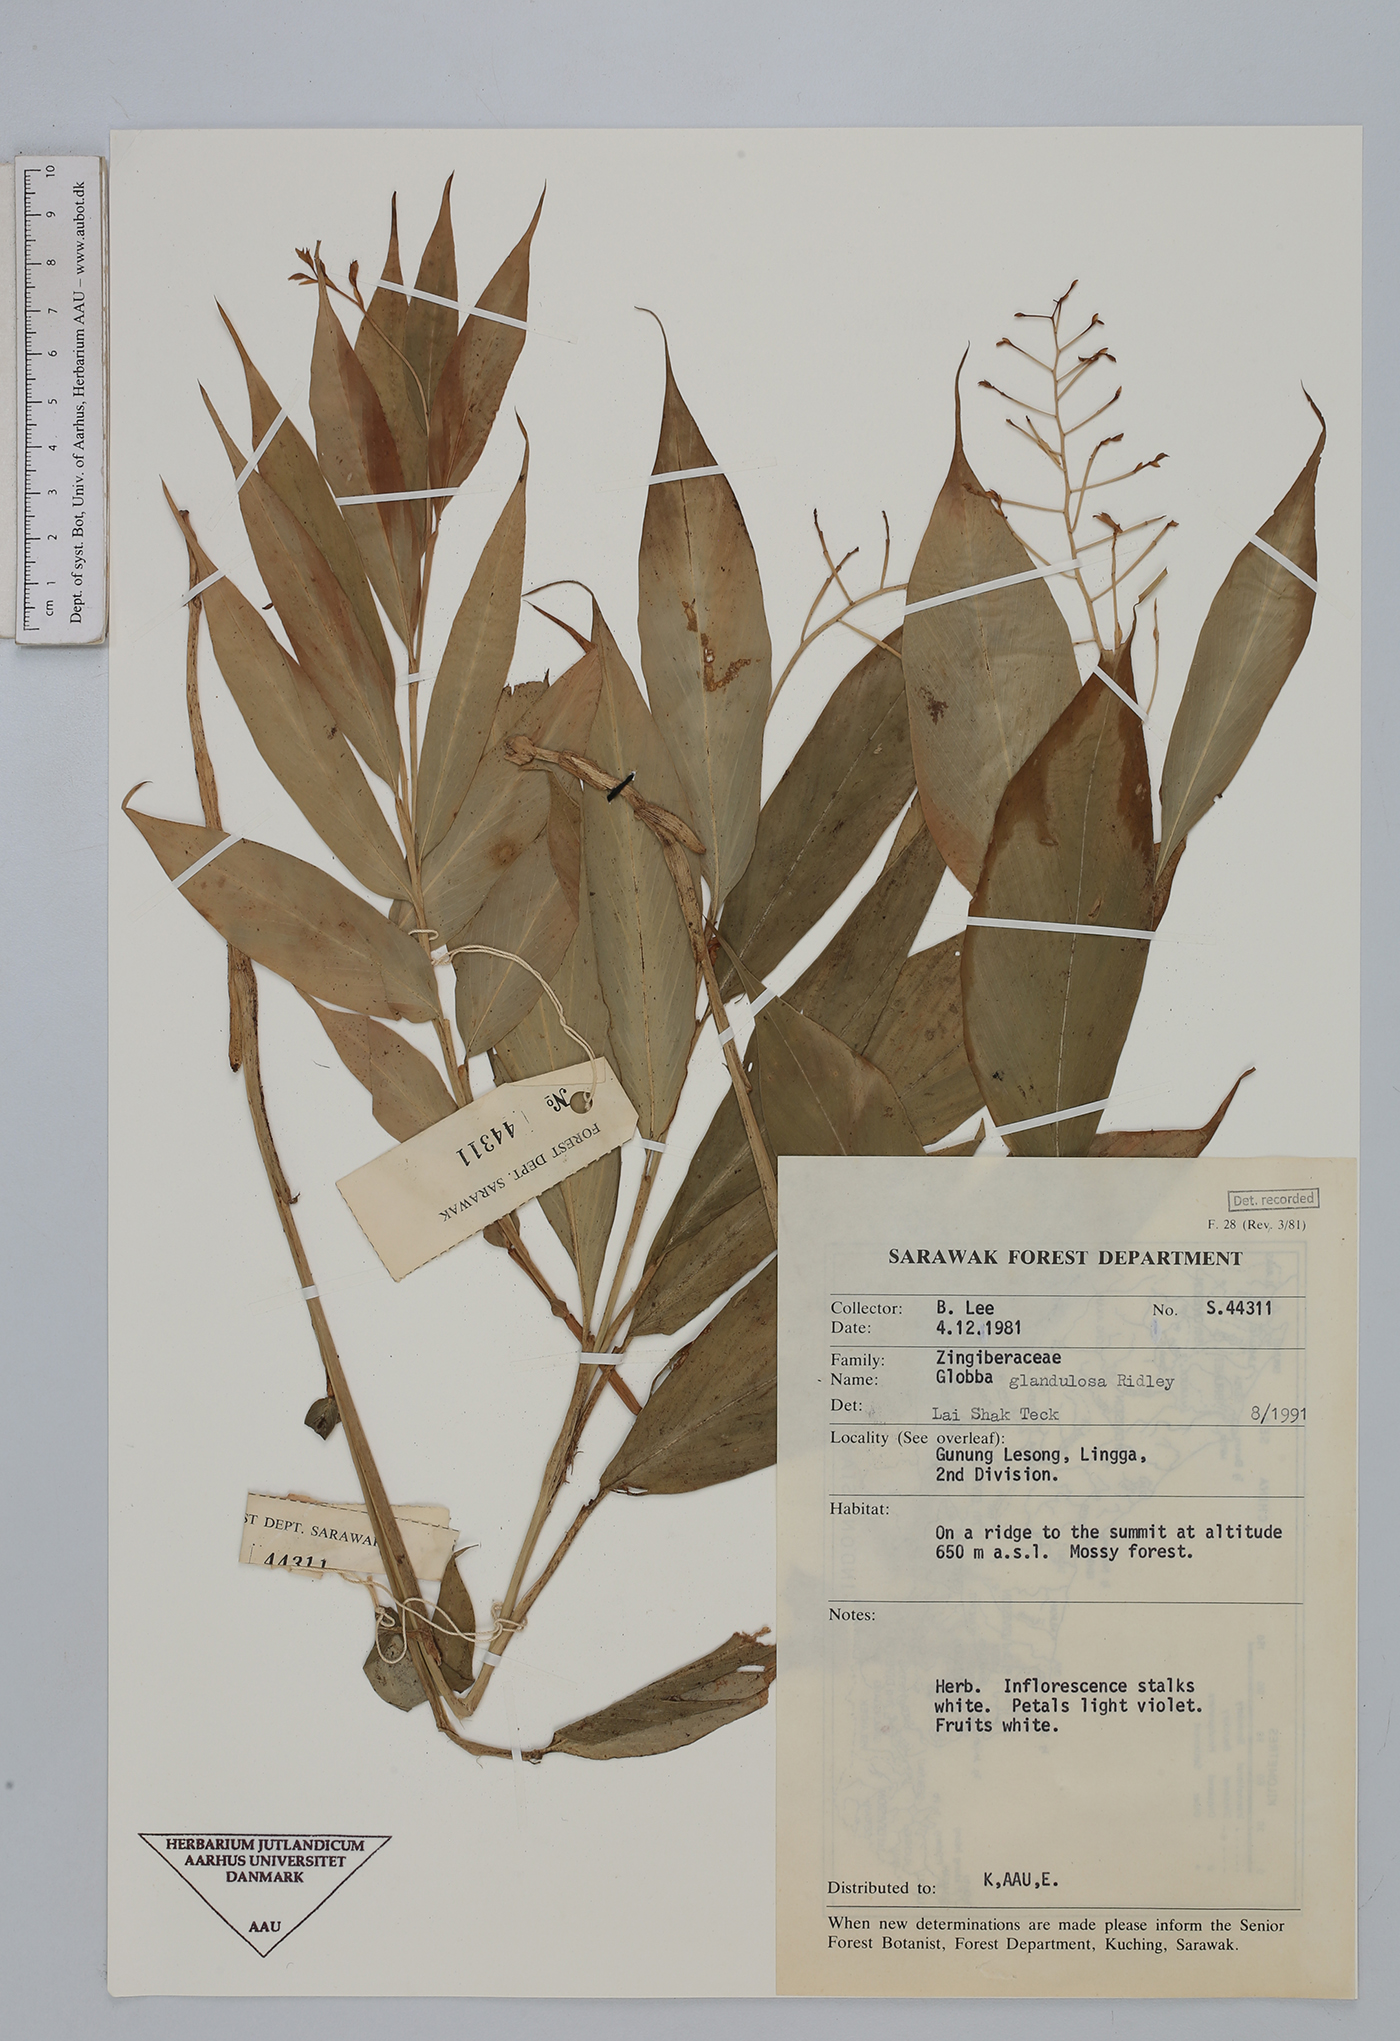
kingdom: Plantae
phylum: Tracheophyta
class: Liliopsida
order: Zingiberales
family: Zingiberaceae
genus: Globba
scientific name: Globba glandulosa
